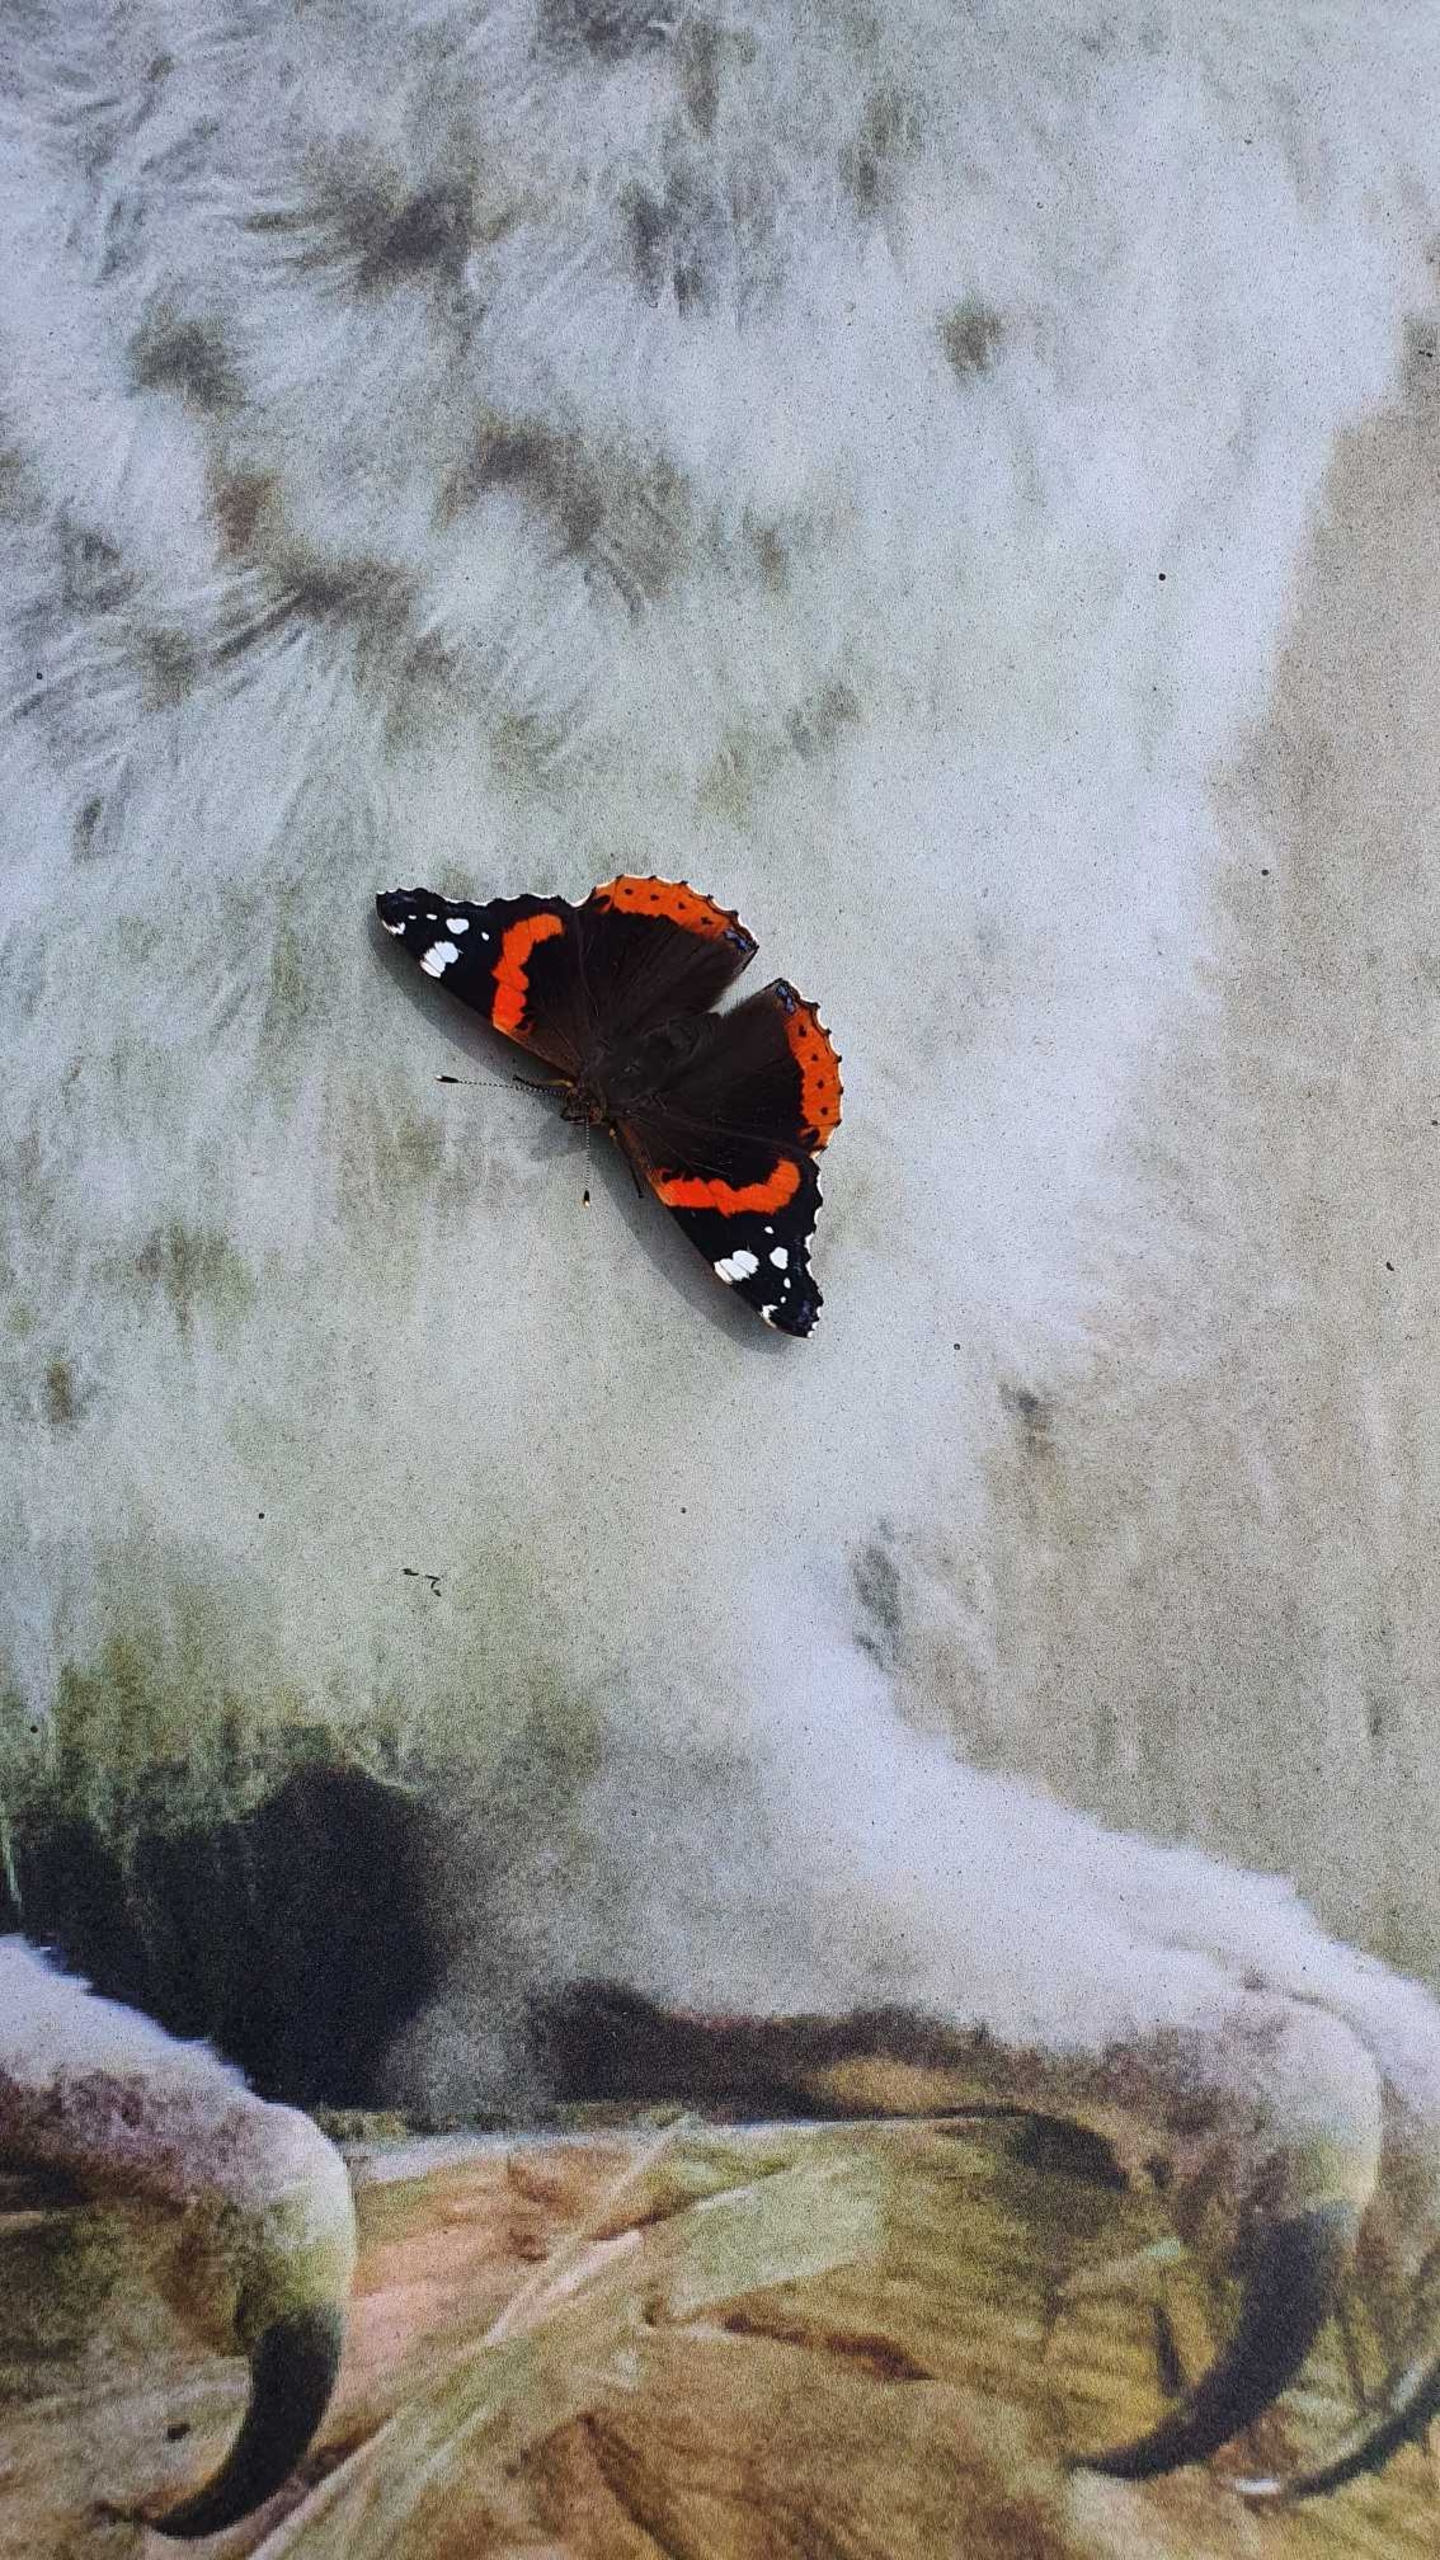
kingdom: Animalia
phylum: Arthropoda
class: Insecta
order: Lepidoptera
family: Nymphalidae
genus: Vanessa
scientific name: Vanessa atalanta
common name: Admiral
